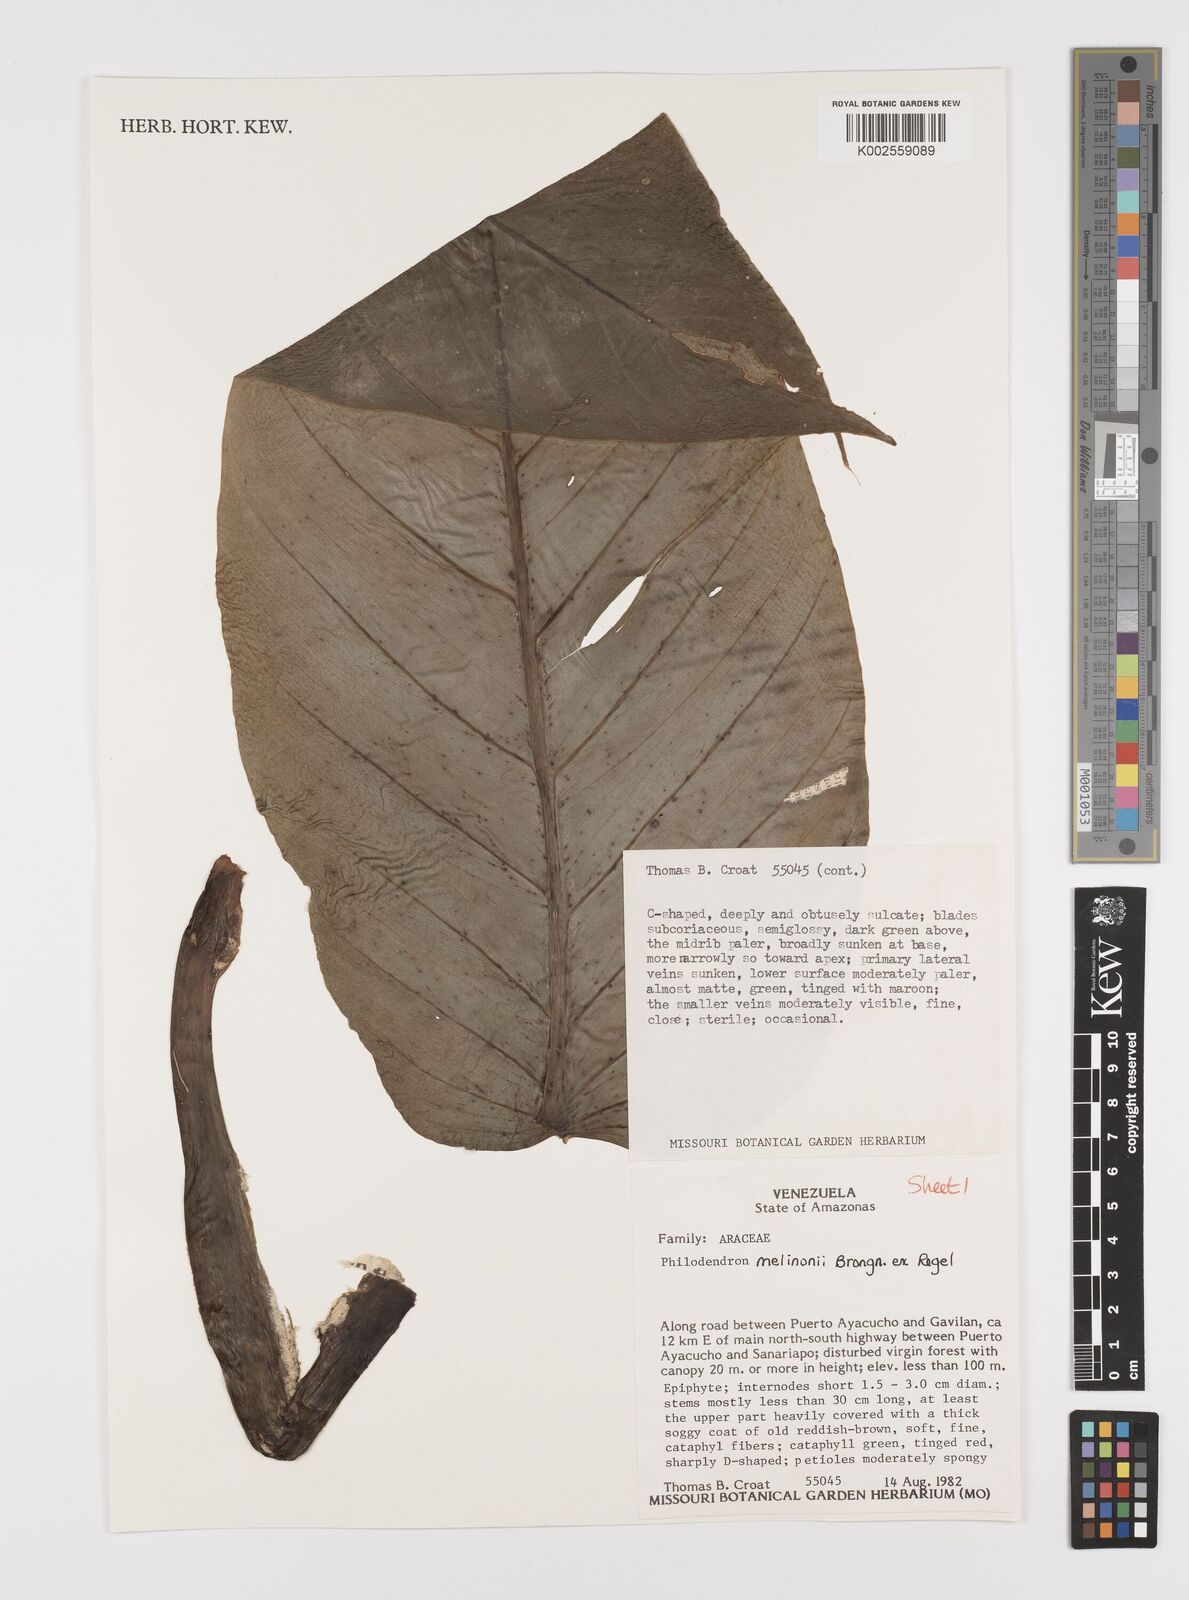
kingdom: Plantae
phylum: Tracheophyta
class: Liliopsida
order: Alismatales
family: Araceae
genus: Philodendron
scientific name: Philodendron melinonii
